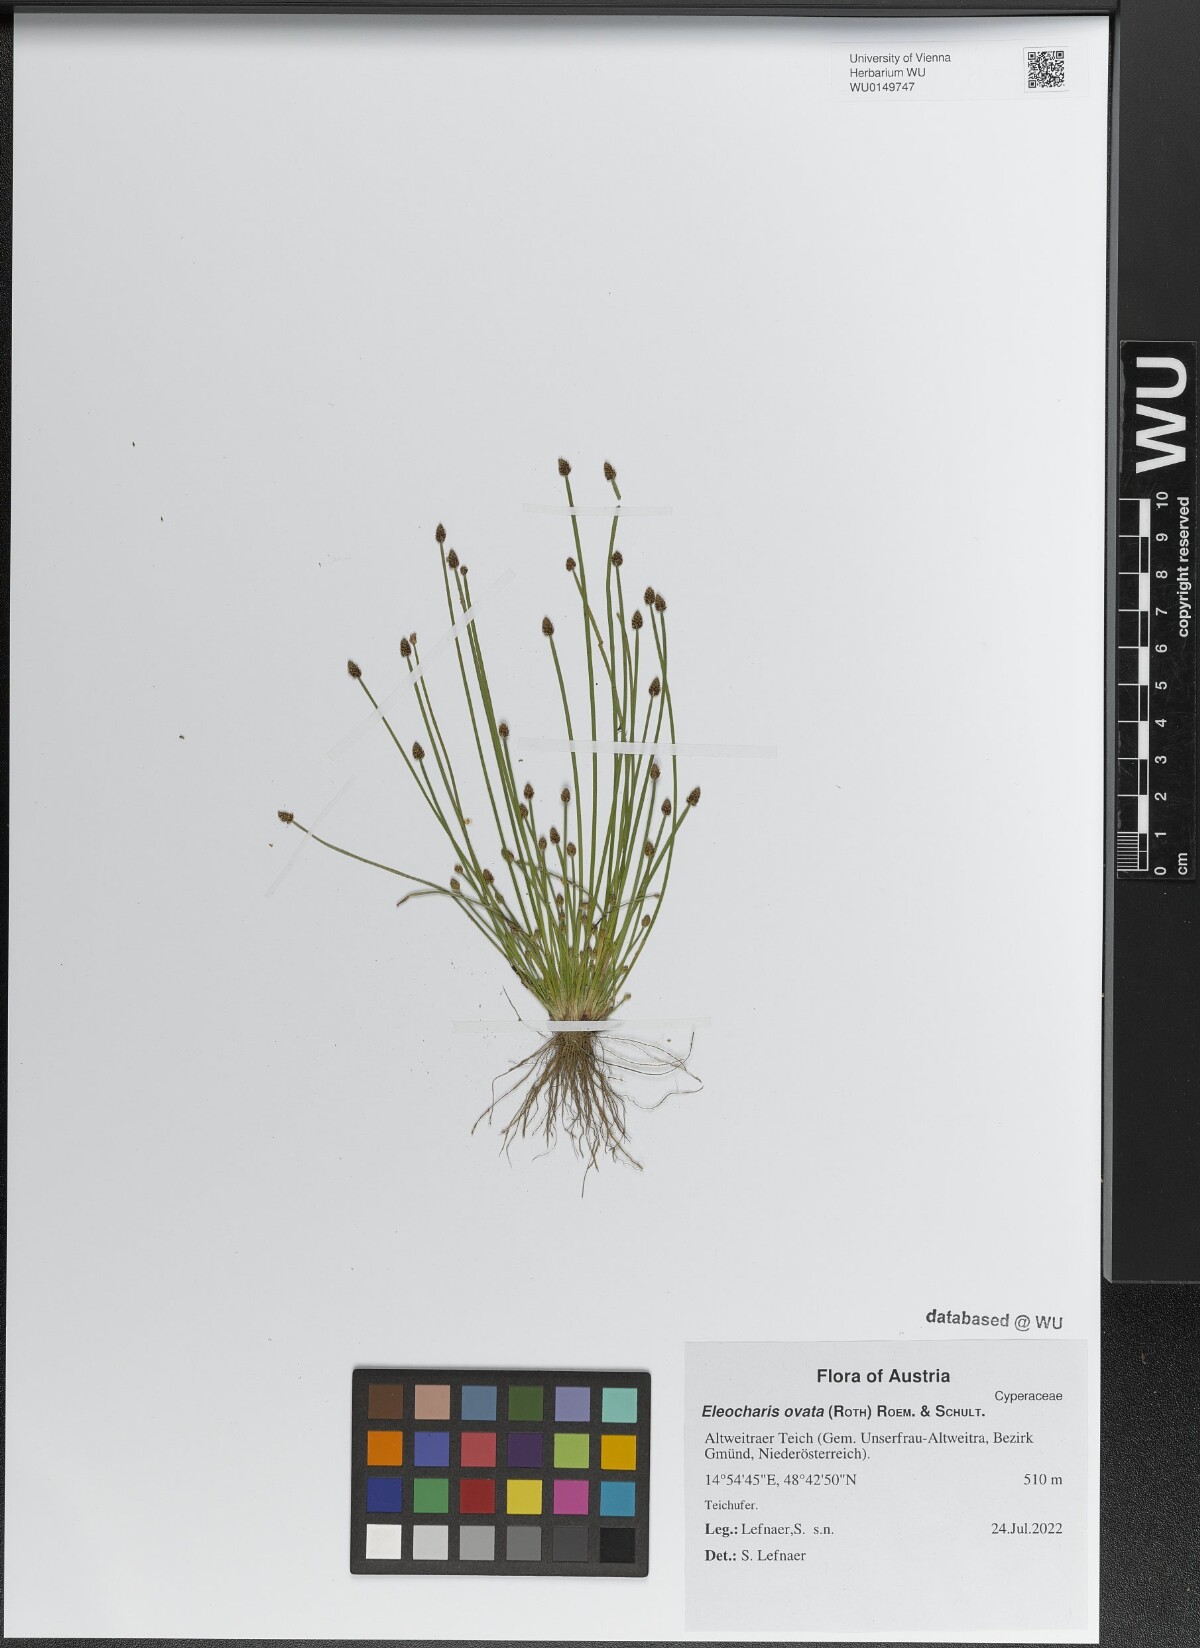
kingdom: Plantae
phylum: Tracheophyta
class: Liliopsida
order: Poales
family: Cyperaceae
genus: Eleocharis
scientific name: Eleocharis ovata
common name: Oval spike-rush
